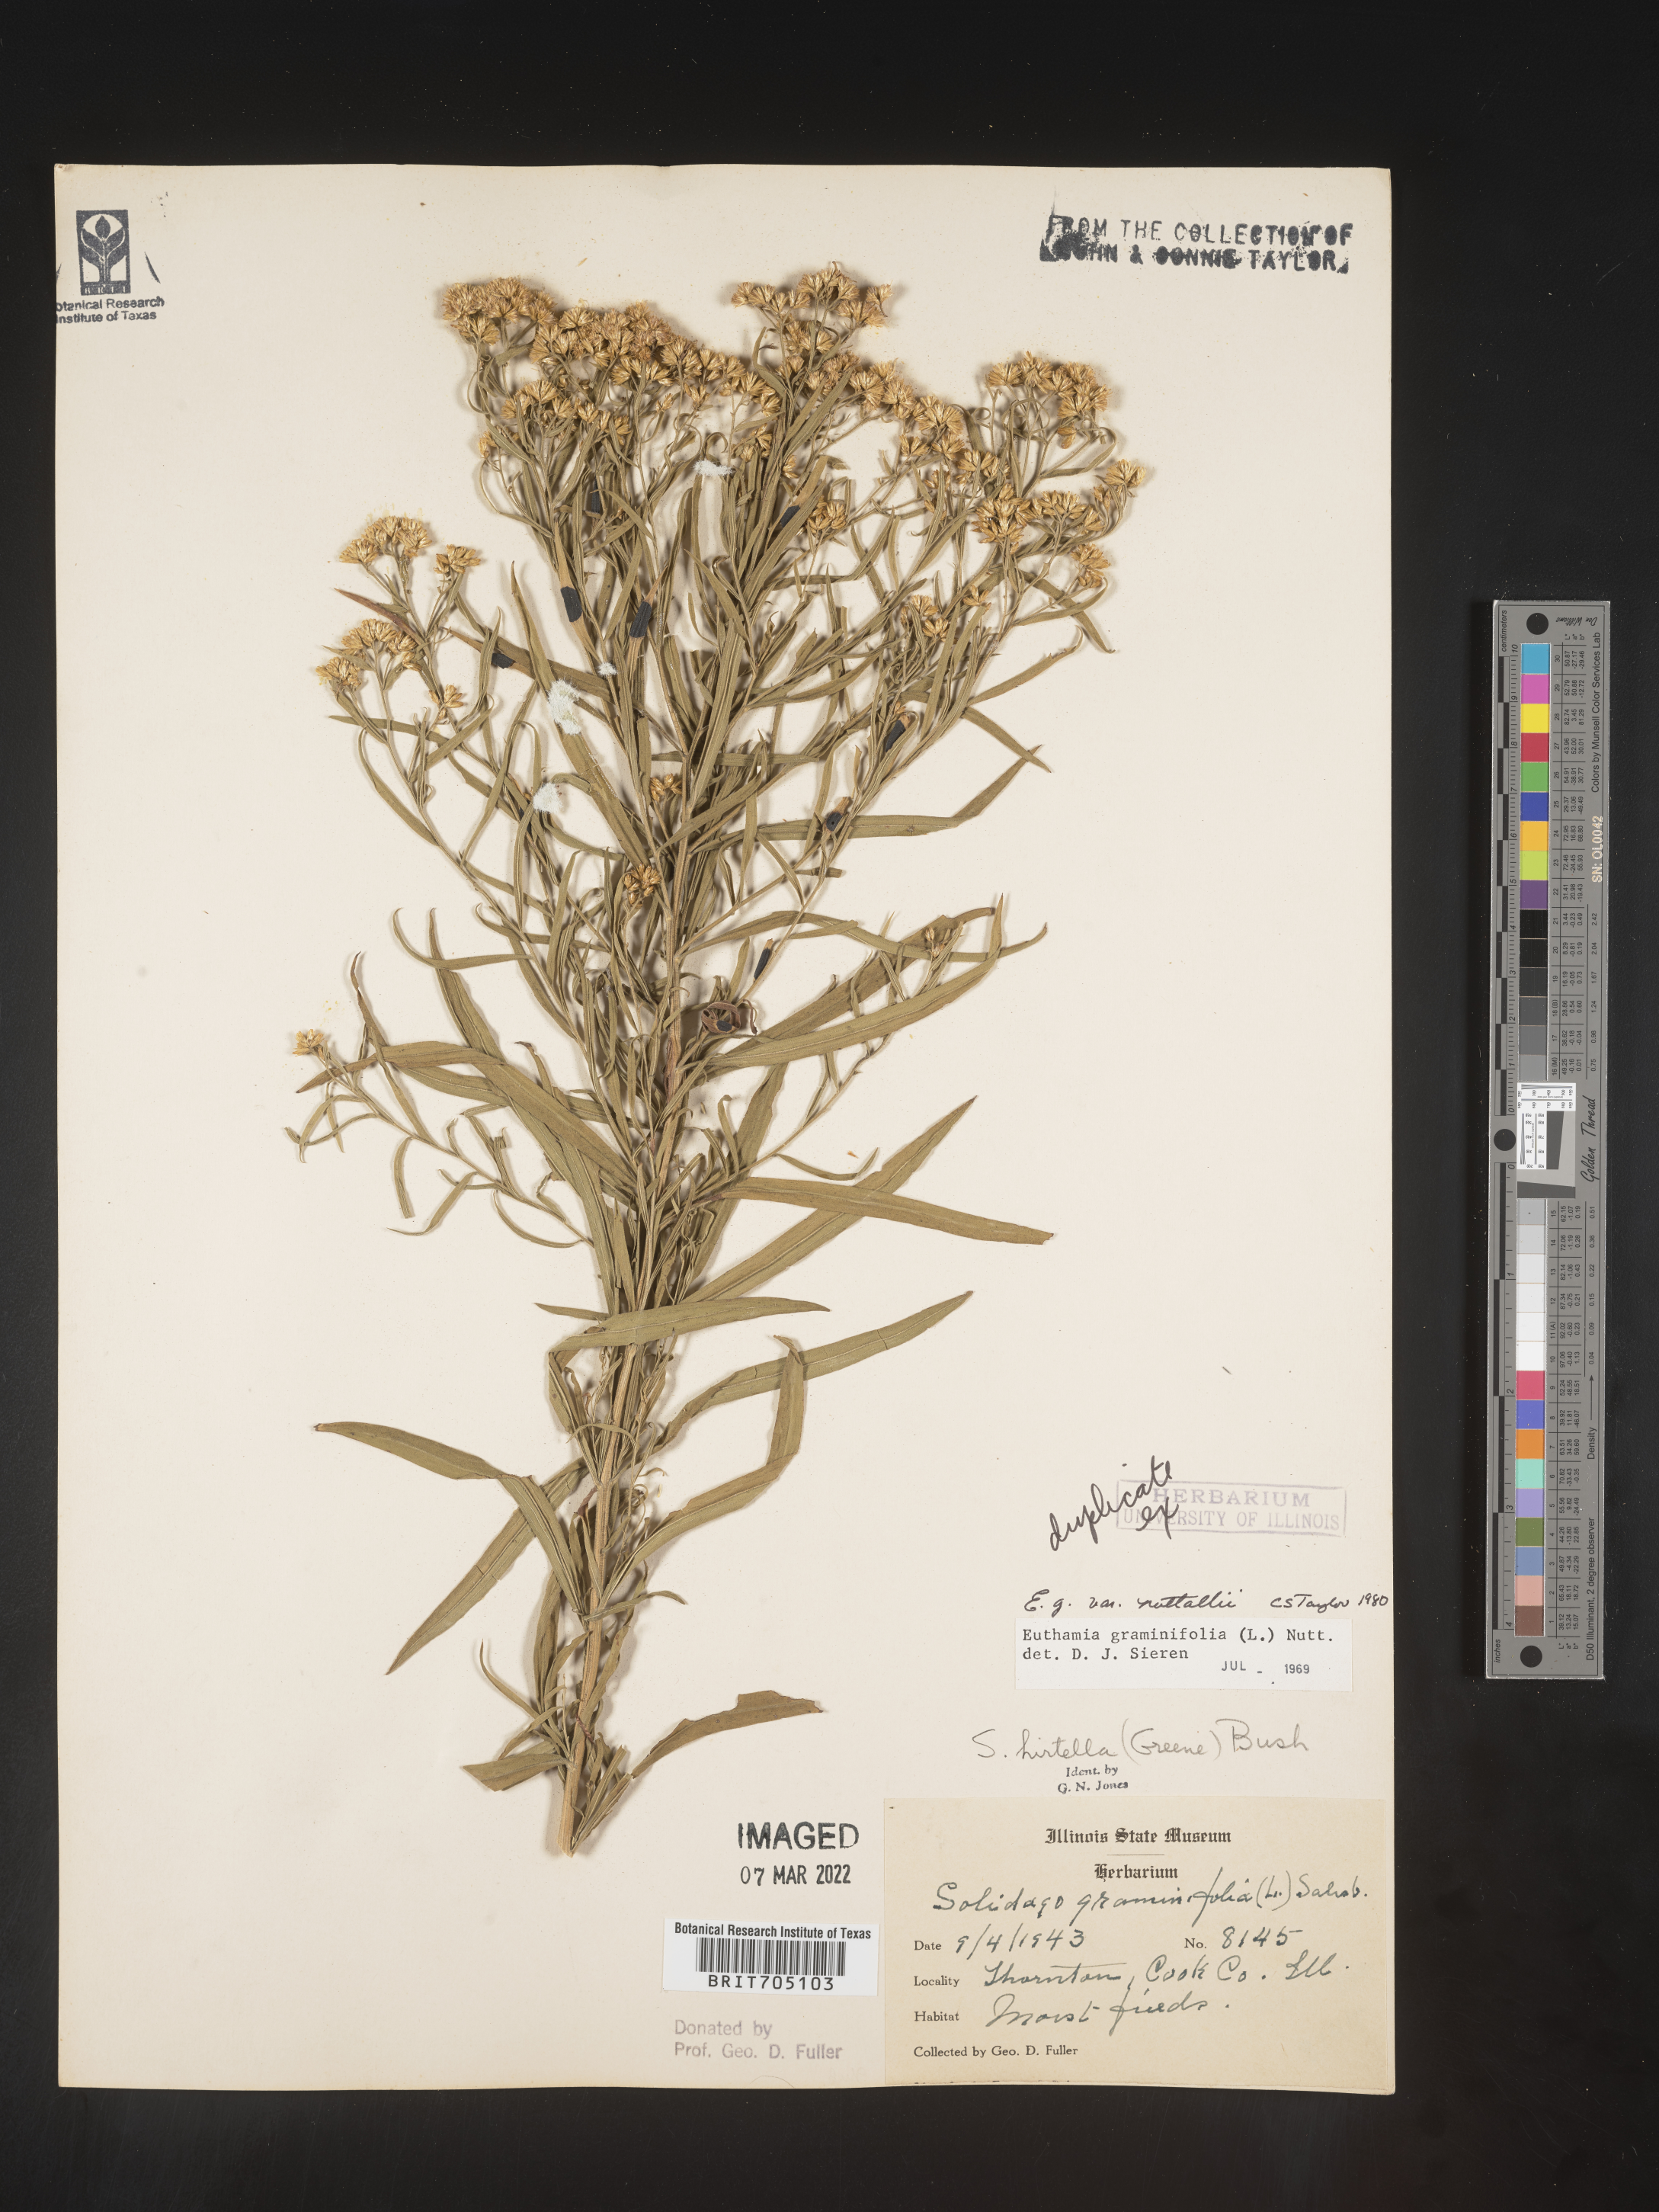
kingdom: Plantae
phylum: Tracheophyta
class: Magnoliopsida
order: Asterales
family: Asteraceae
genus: Euthamia
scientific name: Euthamia graminifolia
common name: Common goldentop
